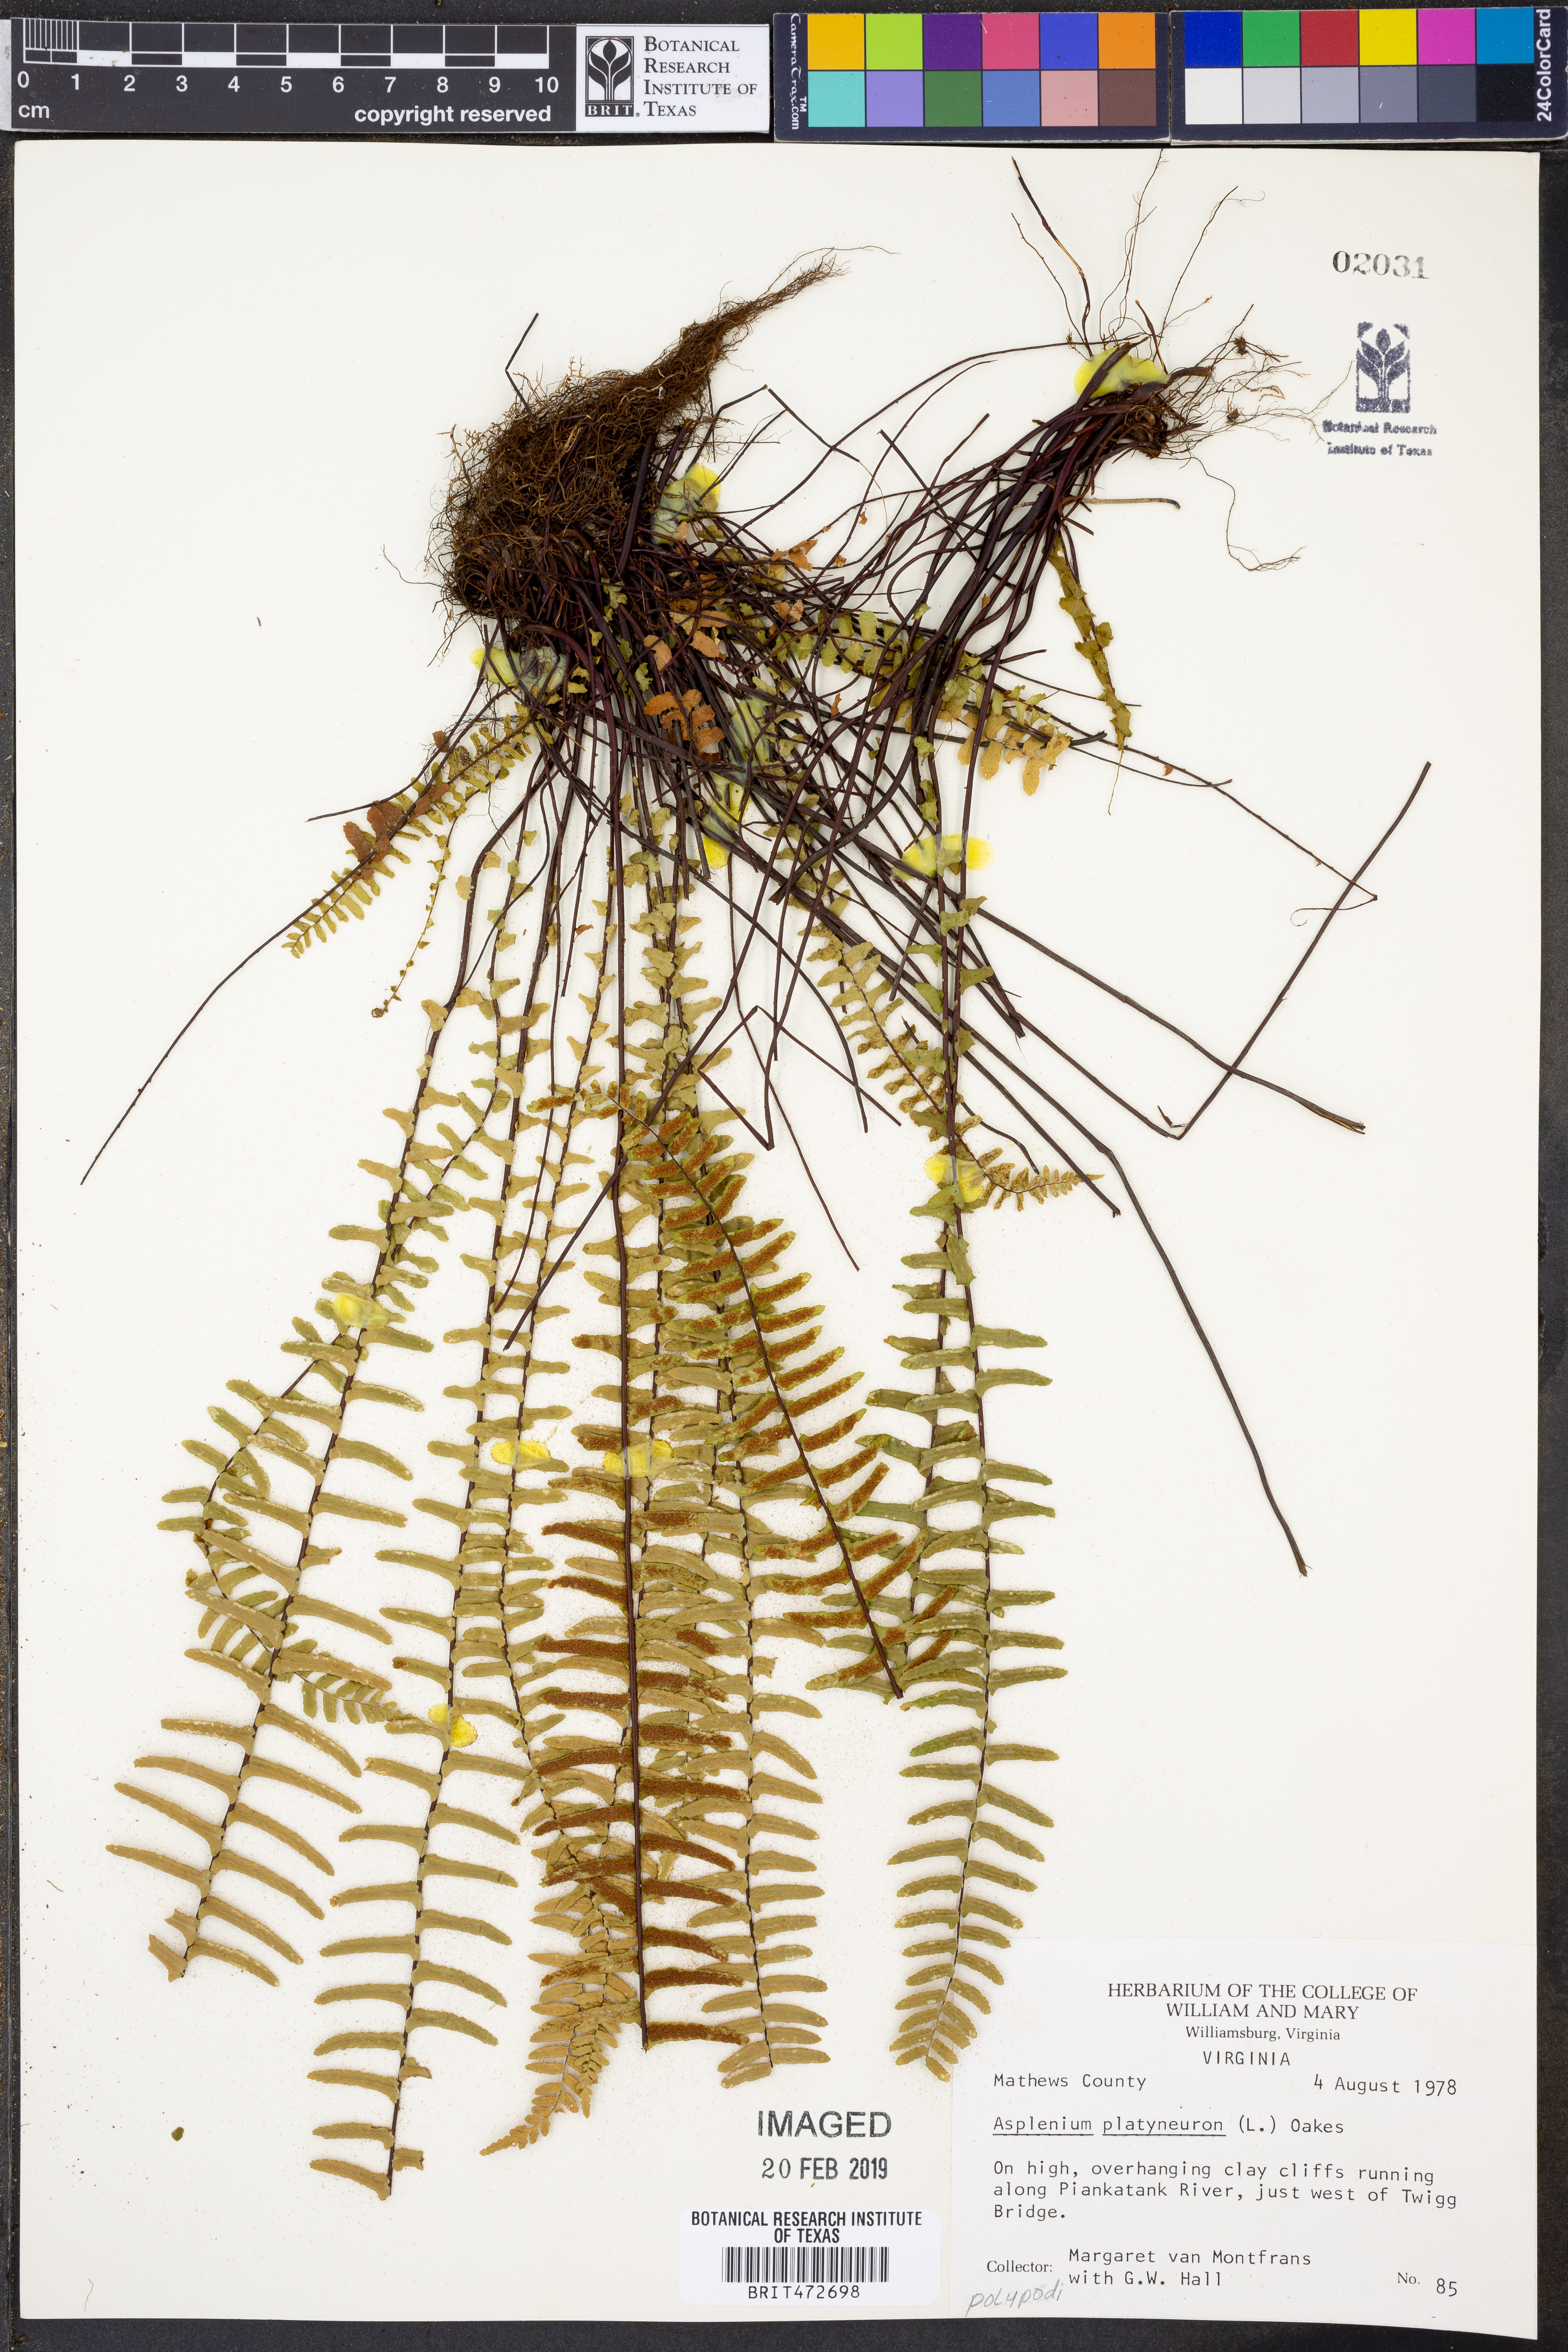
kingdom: Plantae
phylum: Tracheophyta
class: Polypodiopsida
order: Polypodiales
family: Aspleniaceae
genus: Asplenium
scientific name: Asplenium platyneuron
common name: Ebony spleenwort
